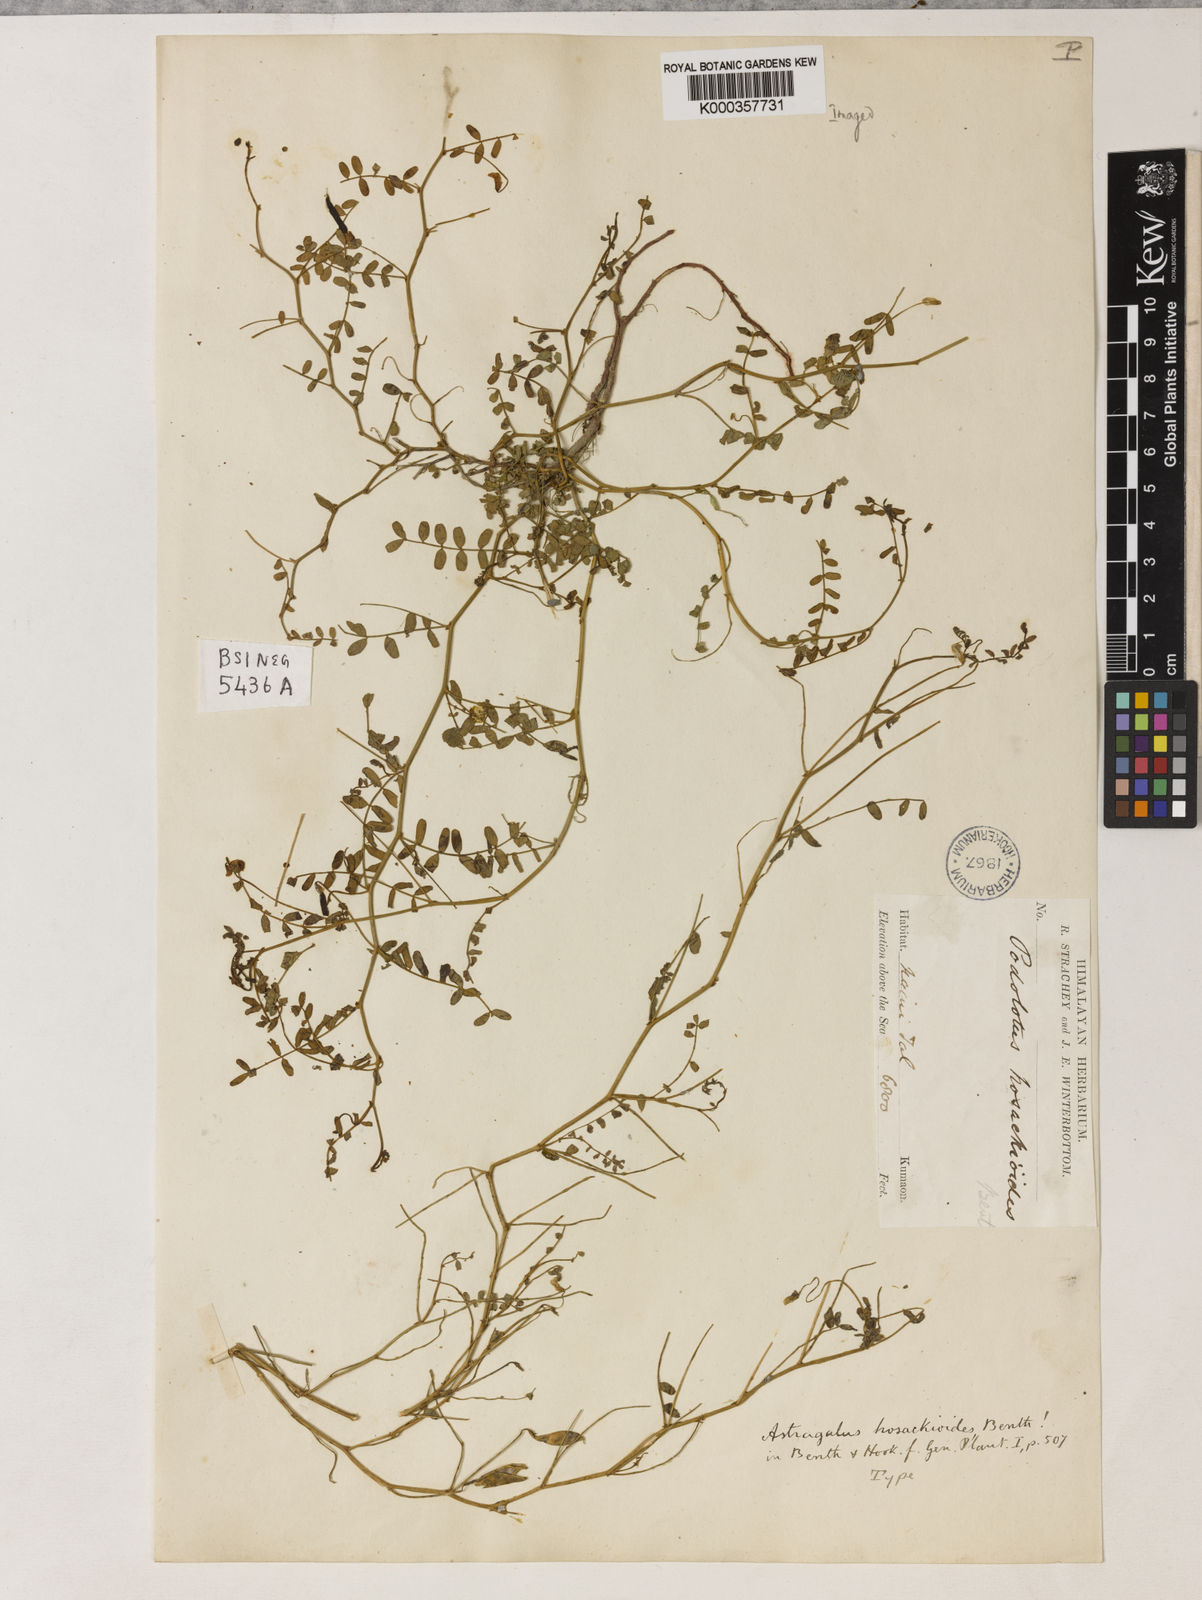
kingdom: Plantae
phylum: Tracheophyta
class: Magnoliopsida
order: Fabales
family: Fabaceae
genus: Podolotus
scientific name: Podolotus hosackioides
